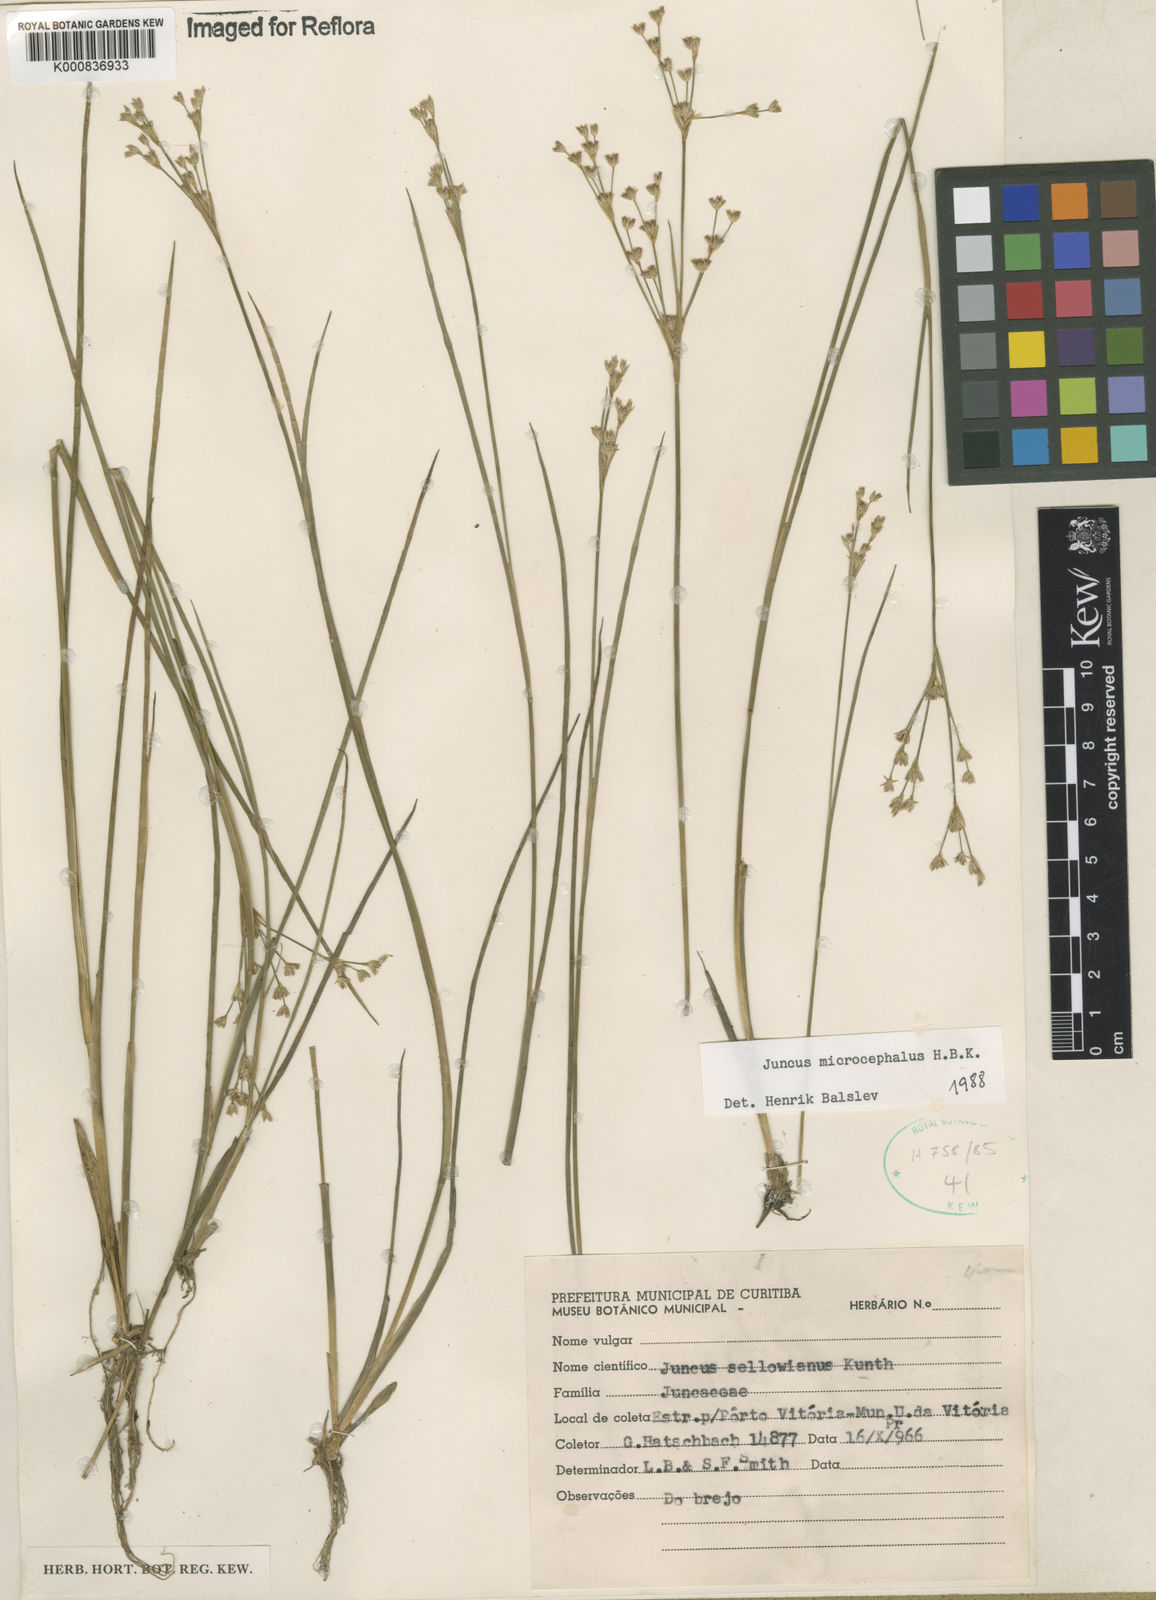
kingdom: Plantae
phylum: Tracheophyta
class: Liliopsida
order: Poales
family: Juncaceae
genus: Juncus
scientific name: Juncus microcephalus
